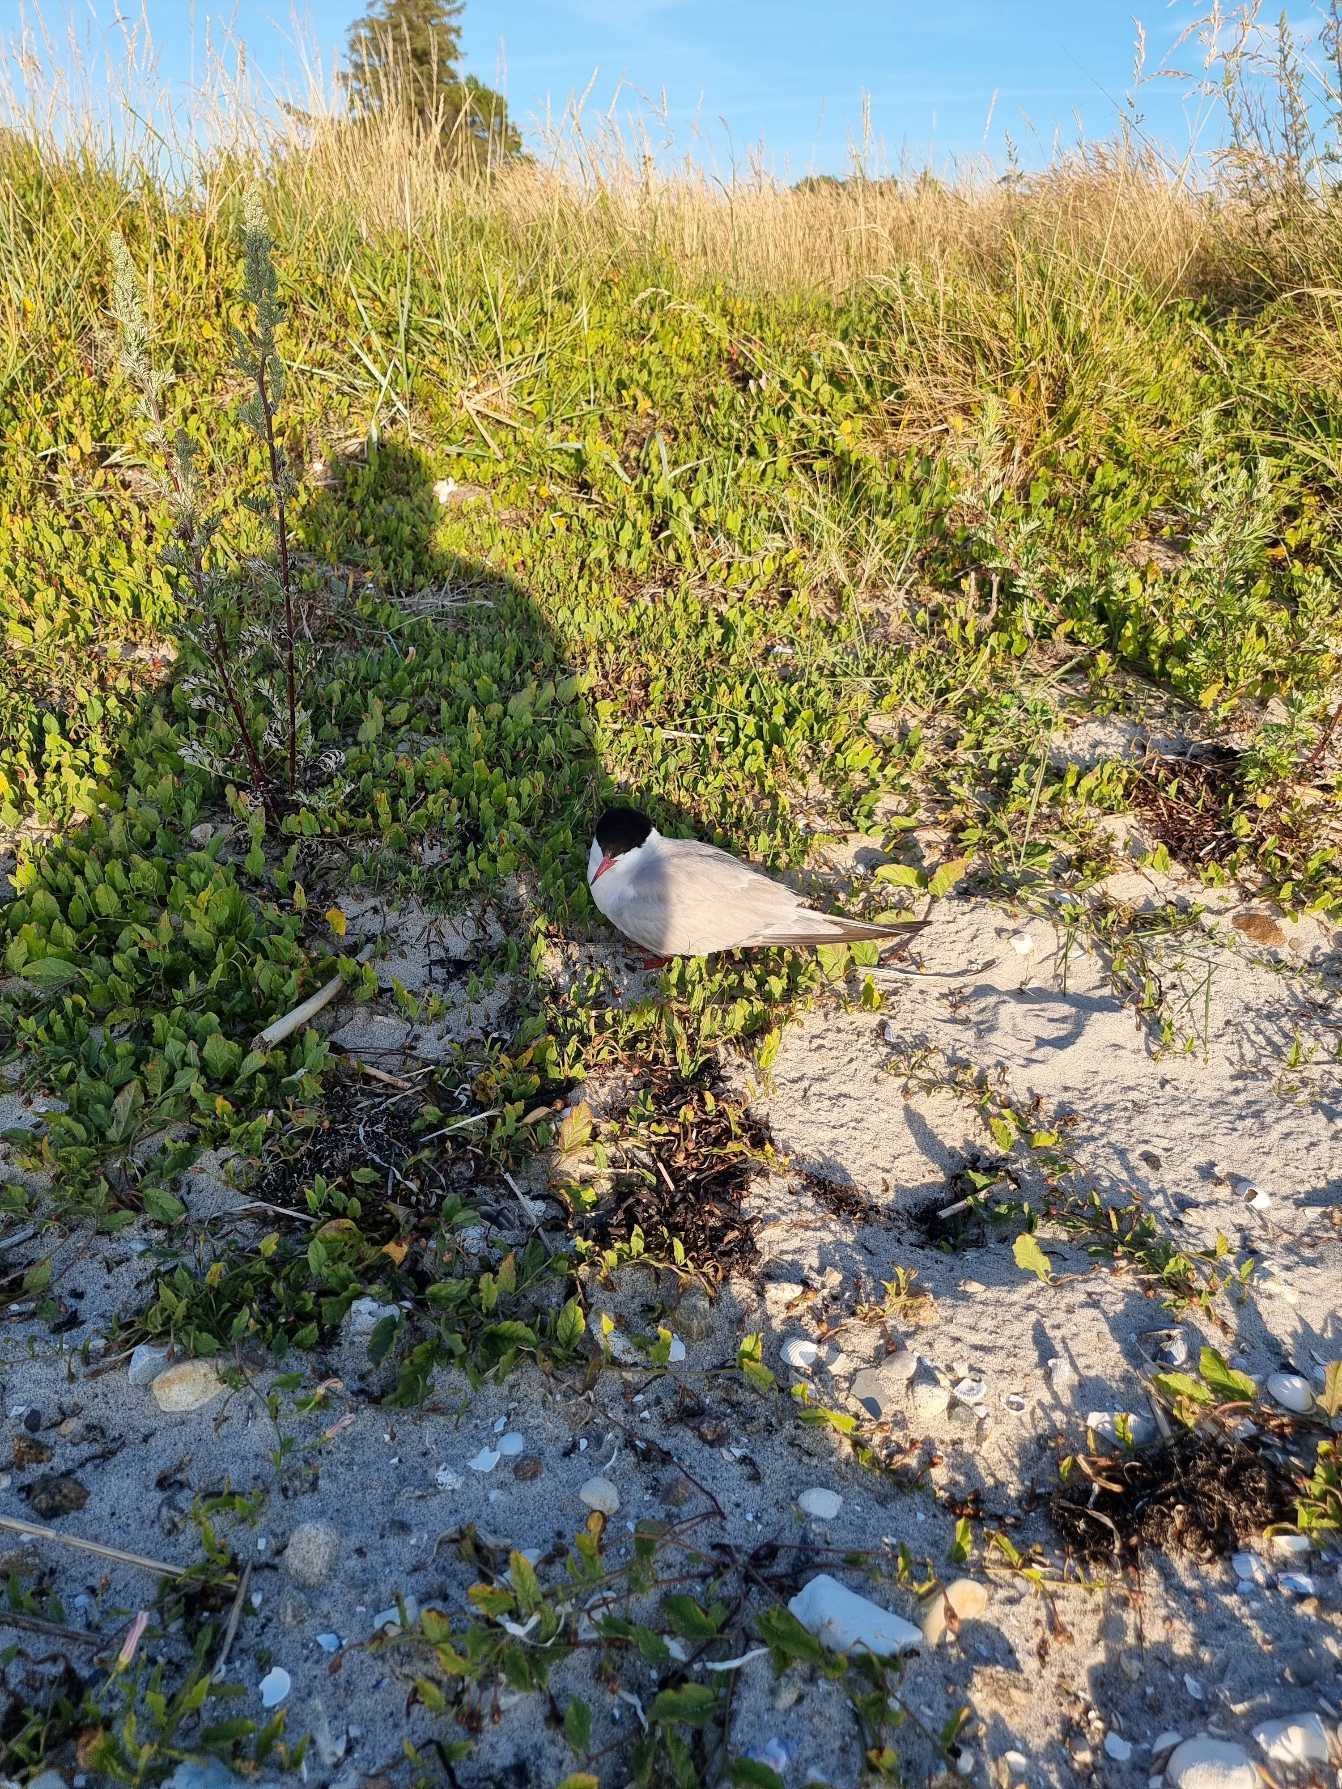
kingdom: Animalia
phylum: Chordata
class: Aves
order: Charadriiformes
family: Laridae
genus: Sterna
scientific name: Sterna hirundo
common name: Fjordterne
